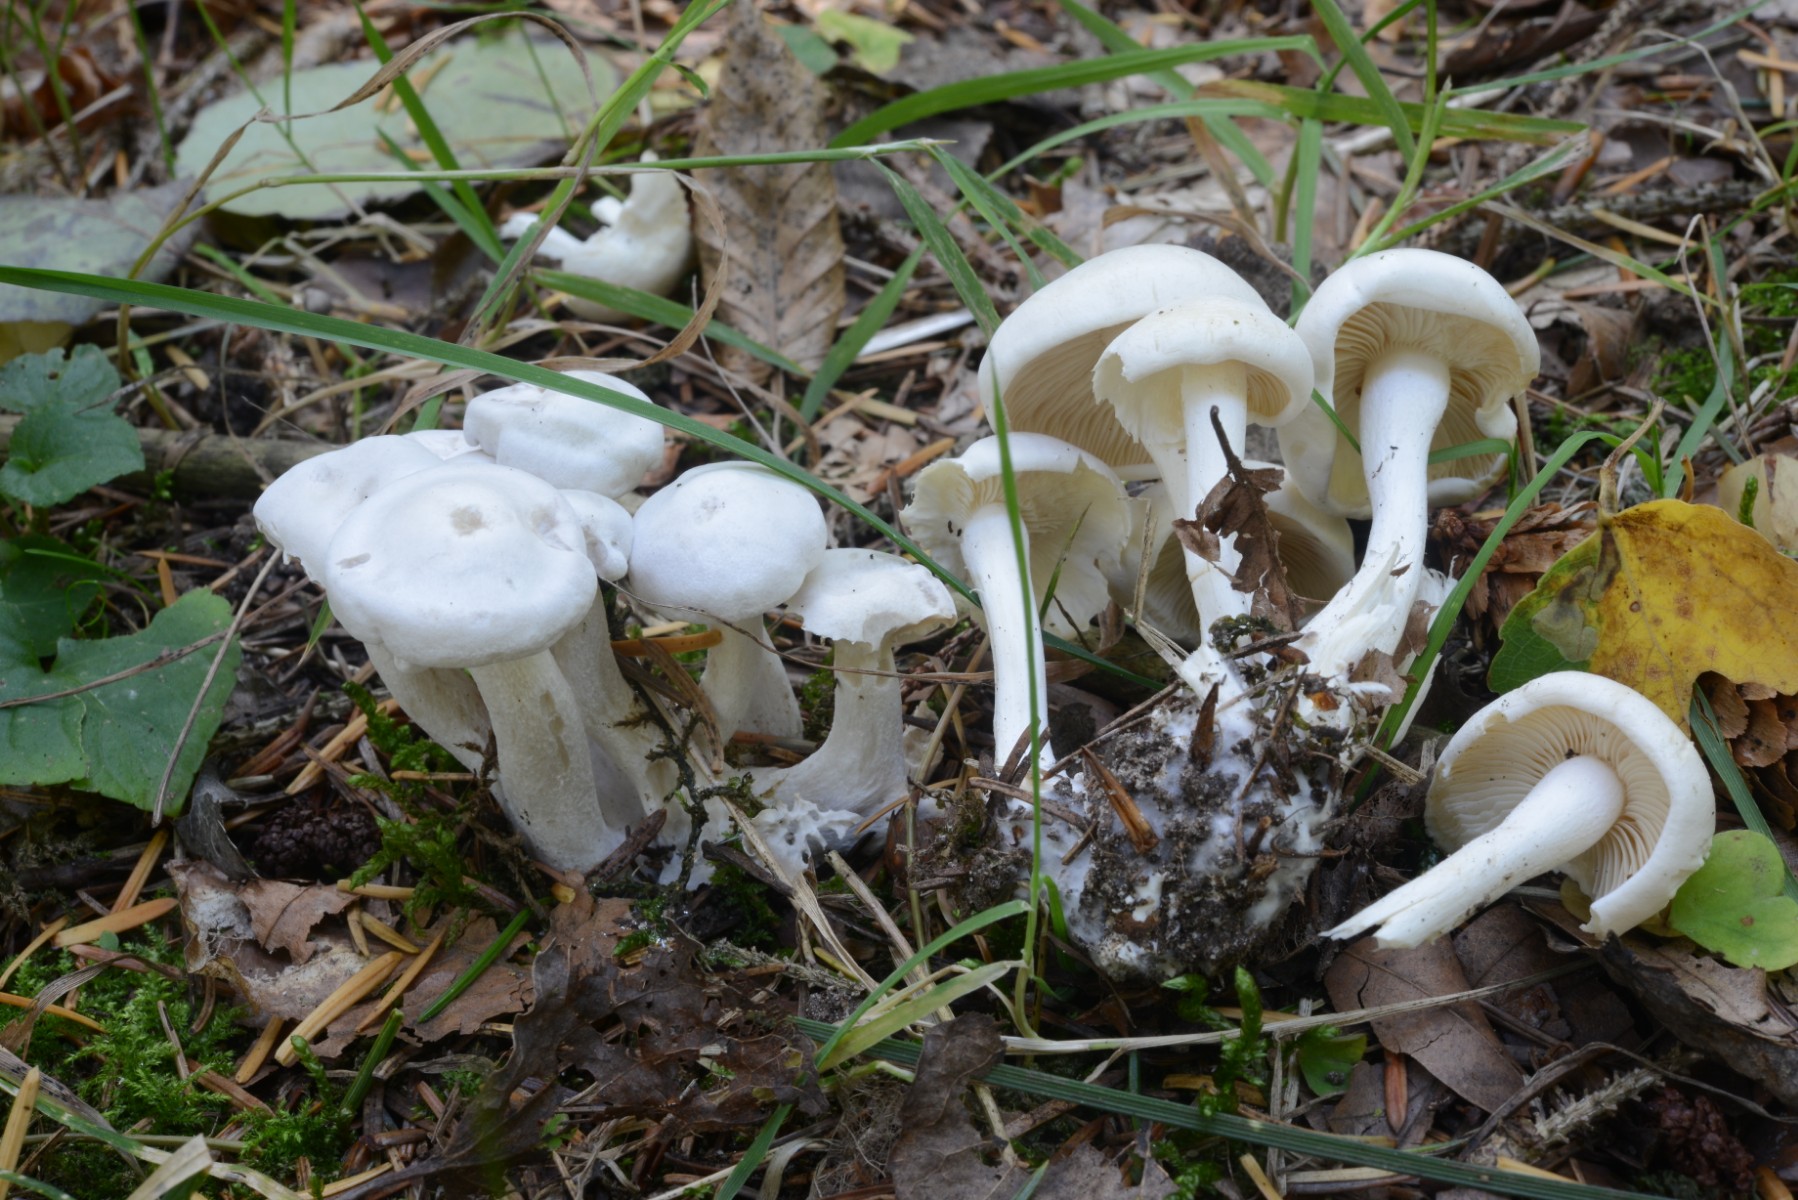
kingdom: Fungi
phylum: Basidiomycota
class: Agaricomycetes
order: Agaricales
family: Tricholomataceae
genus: Leucocybe
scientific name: Leucocybe connata
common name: knippe-tragthat
